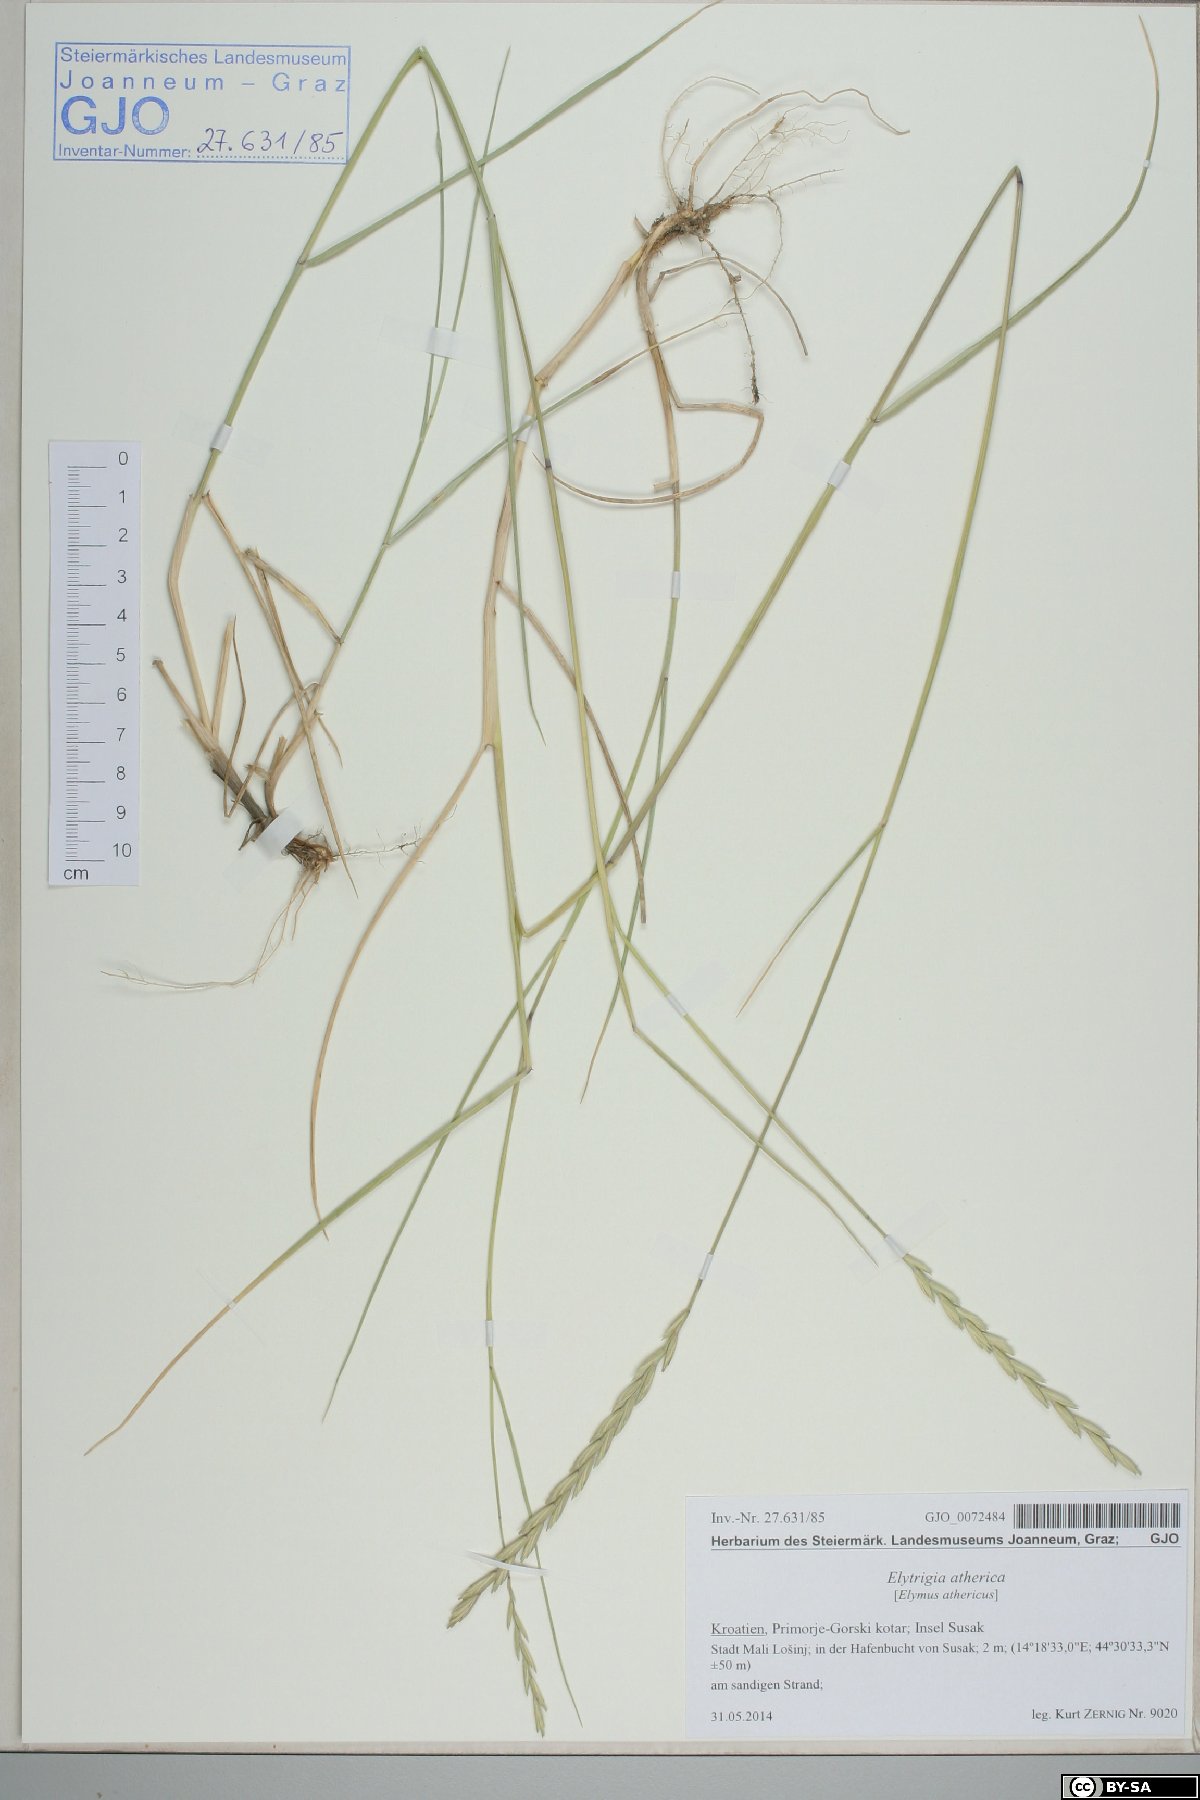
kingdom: Plantae
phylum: Tracheophyta
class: Liliopsida
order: Poales
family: Poaceae
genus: Elymus
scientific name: Elymus athericus
